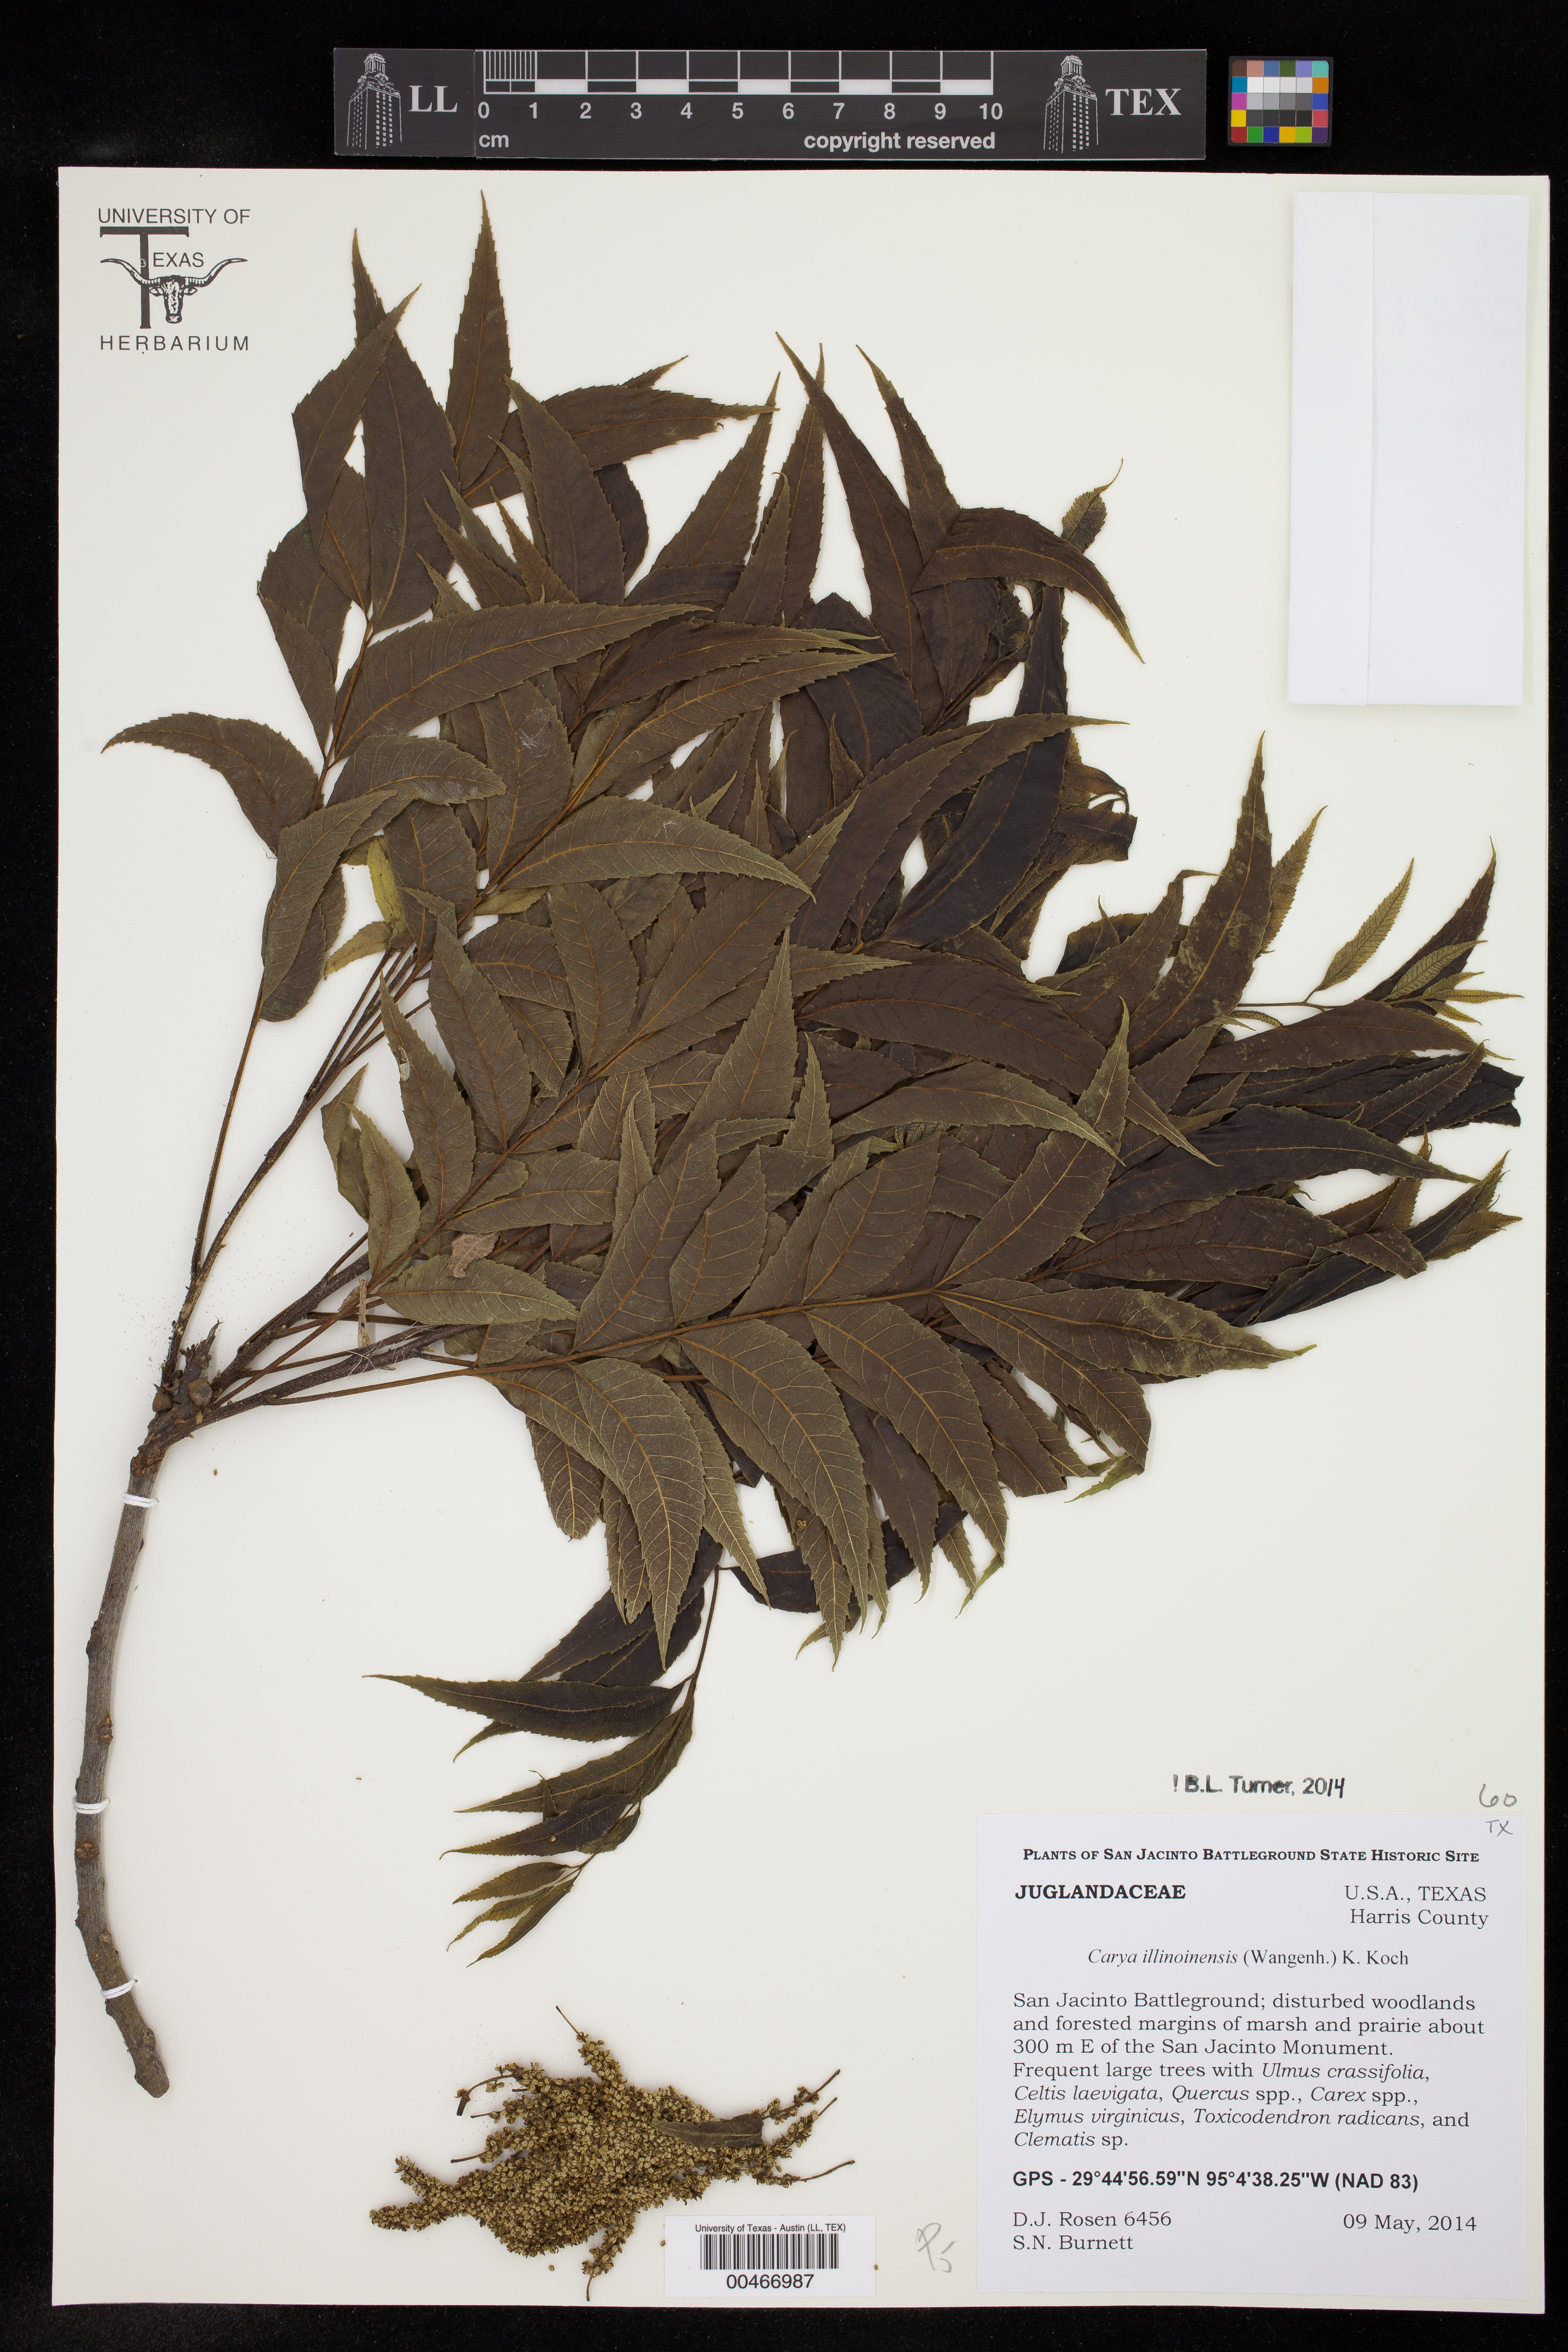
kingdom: Plantae
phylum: Tracheophyta
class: Magnoliopsida
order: Fagales
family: Juglandaceae
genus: Carya
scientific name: Carya illinoinensis
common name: Pecan
